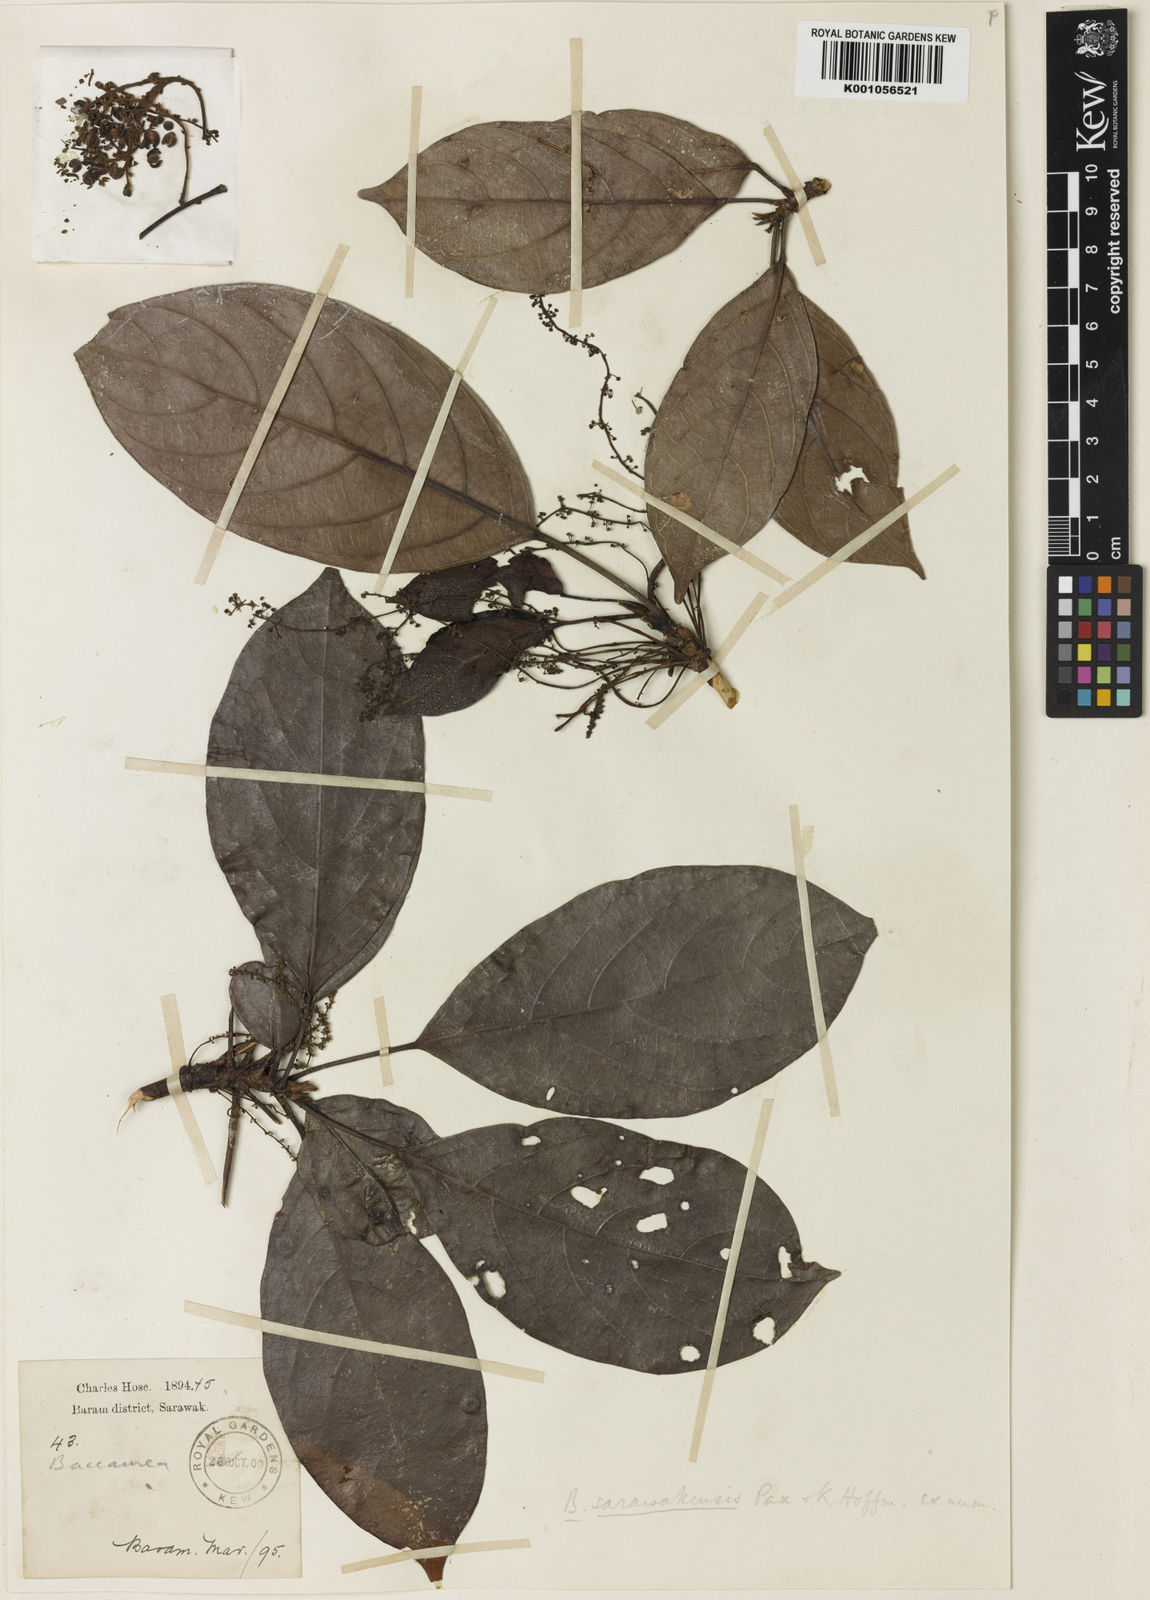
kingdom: Plantae
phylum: Tracheophyta
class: Magnoliopsida
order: Malpighiales
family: Phyllanthaceae
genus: Baccaurea
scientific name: Baccaurea sarawakensis
